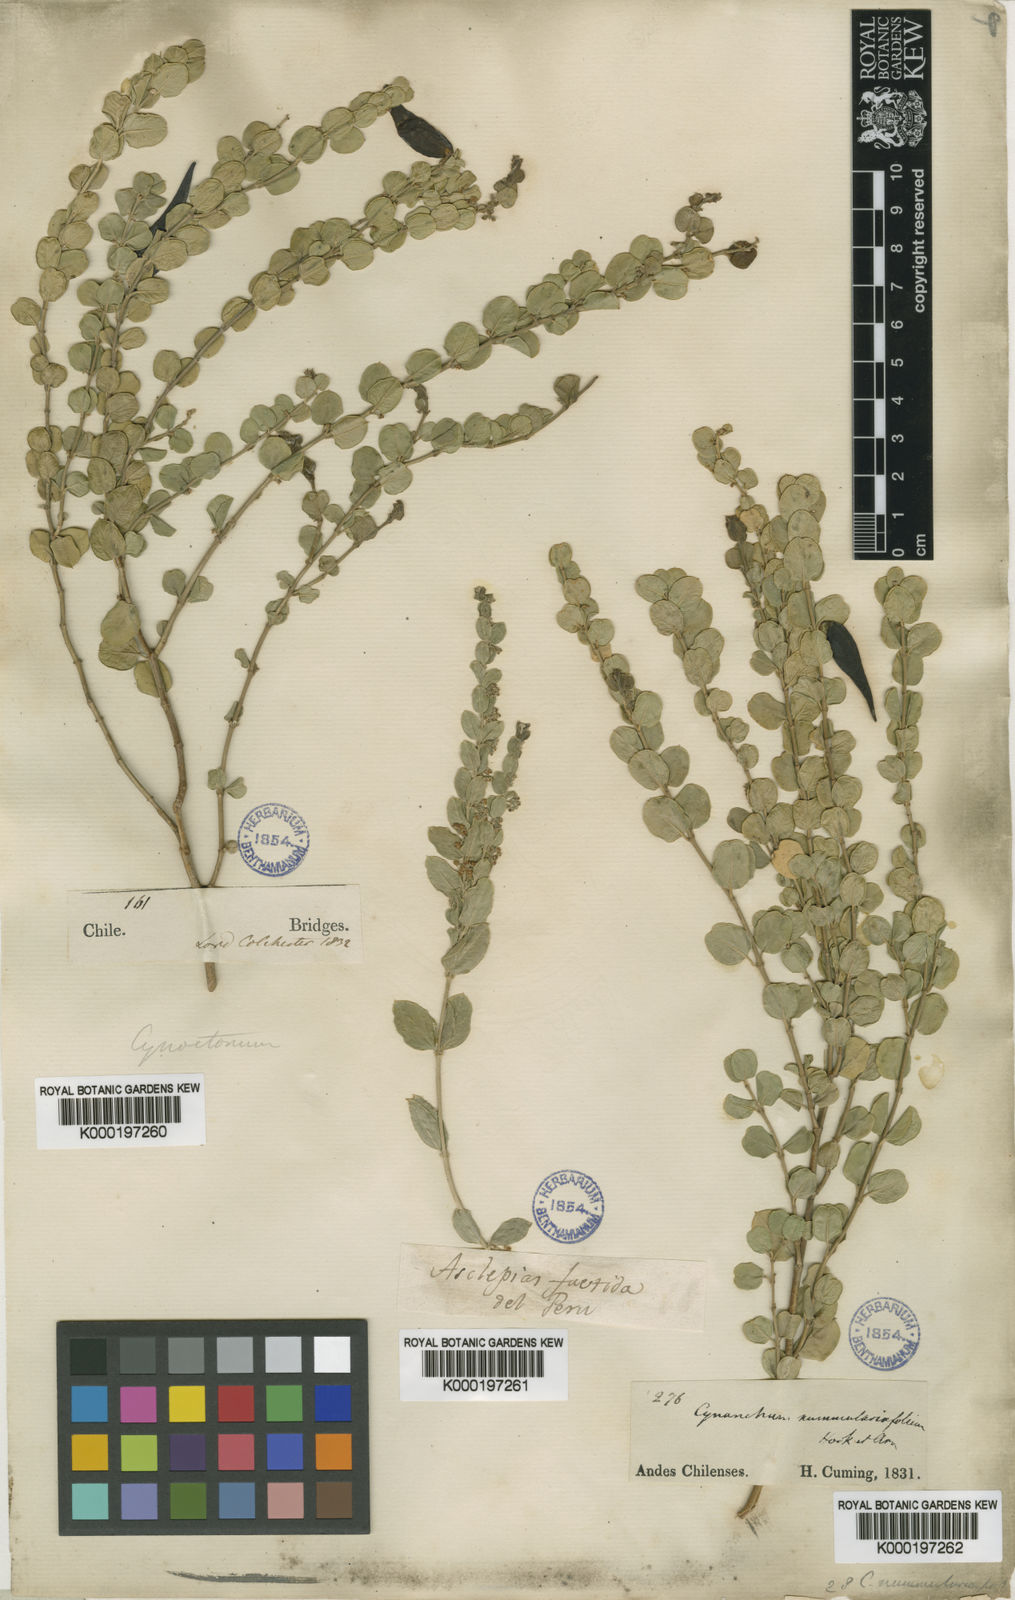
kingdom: Plantae
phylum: Tracheophyta
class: Magnoliopsida
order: Gentianales
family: Apocynaceae
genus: Diplolepis
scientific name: Diplolepis nummulariifolia
